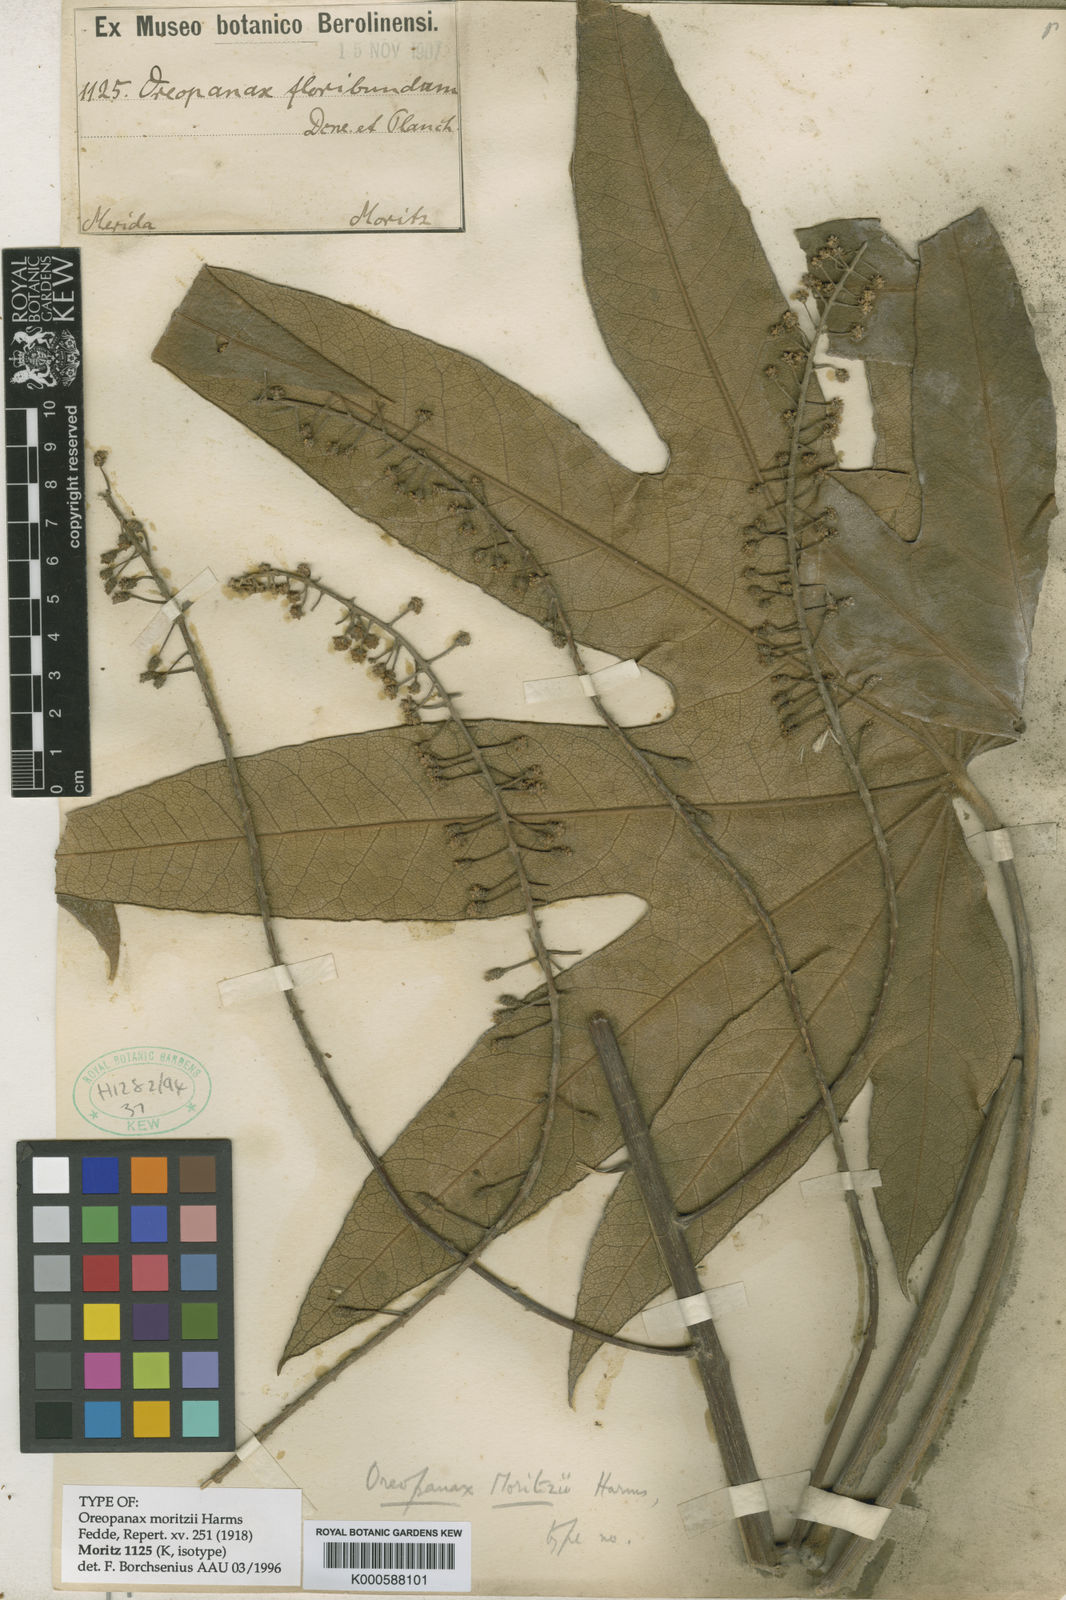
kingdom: Plantae
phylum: Tracheophyta
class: Magnoliopsida
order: Apiales
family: Araliaceae
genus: Oreopanax
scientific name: Oreopanax reticulatus
